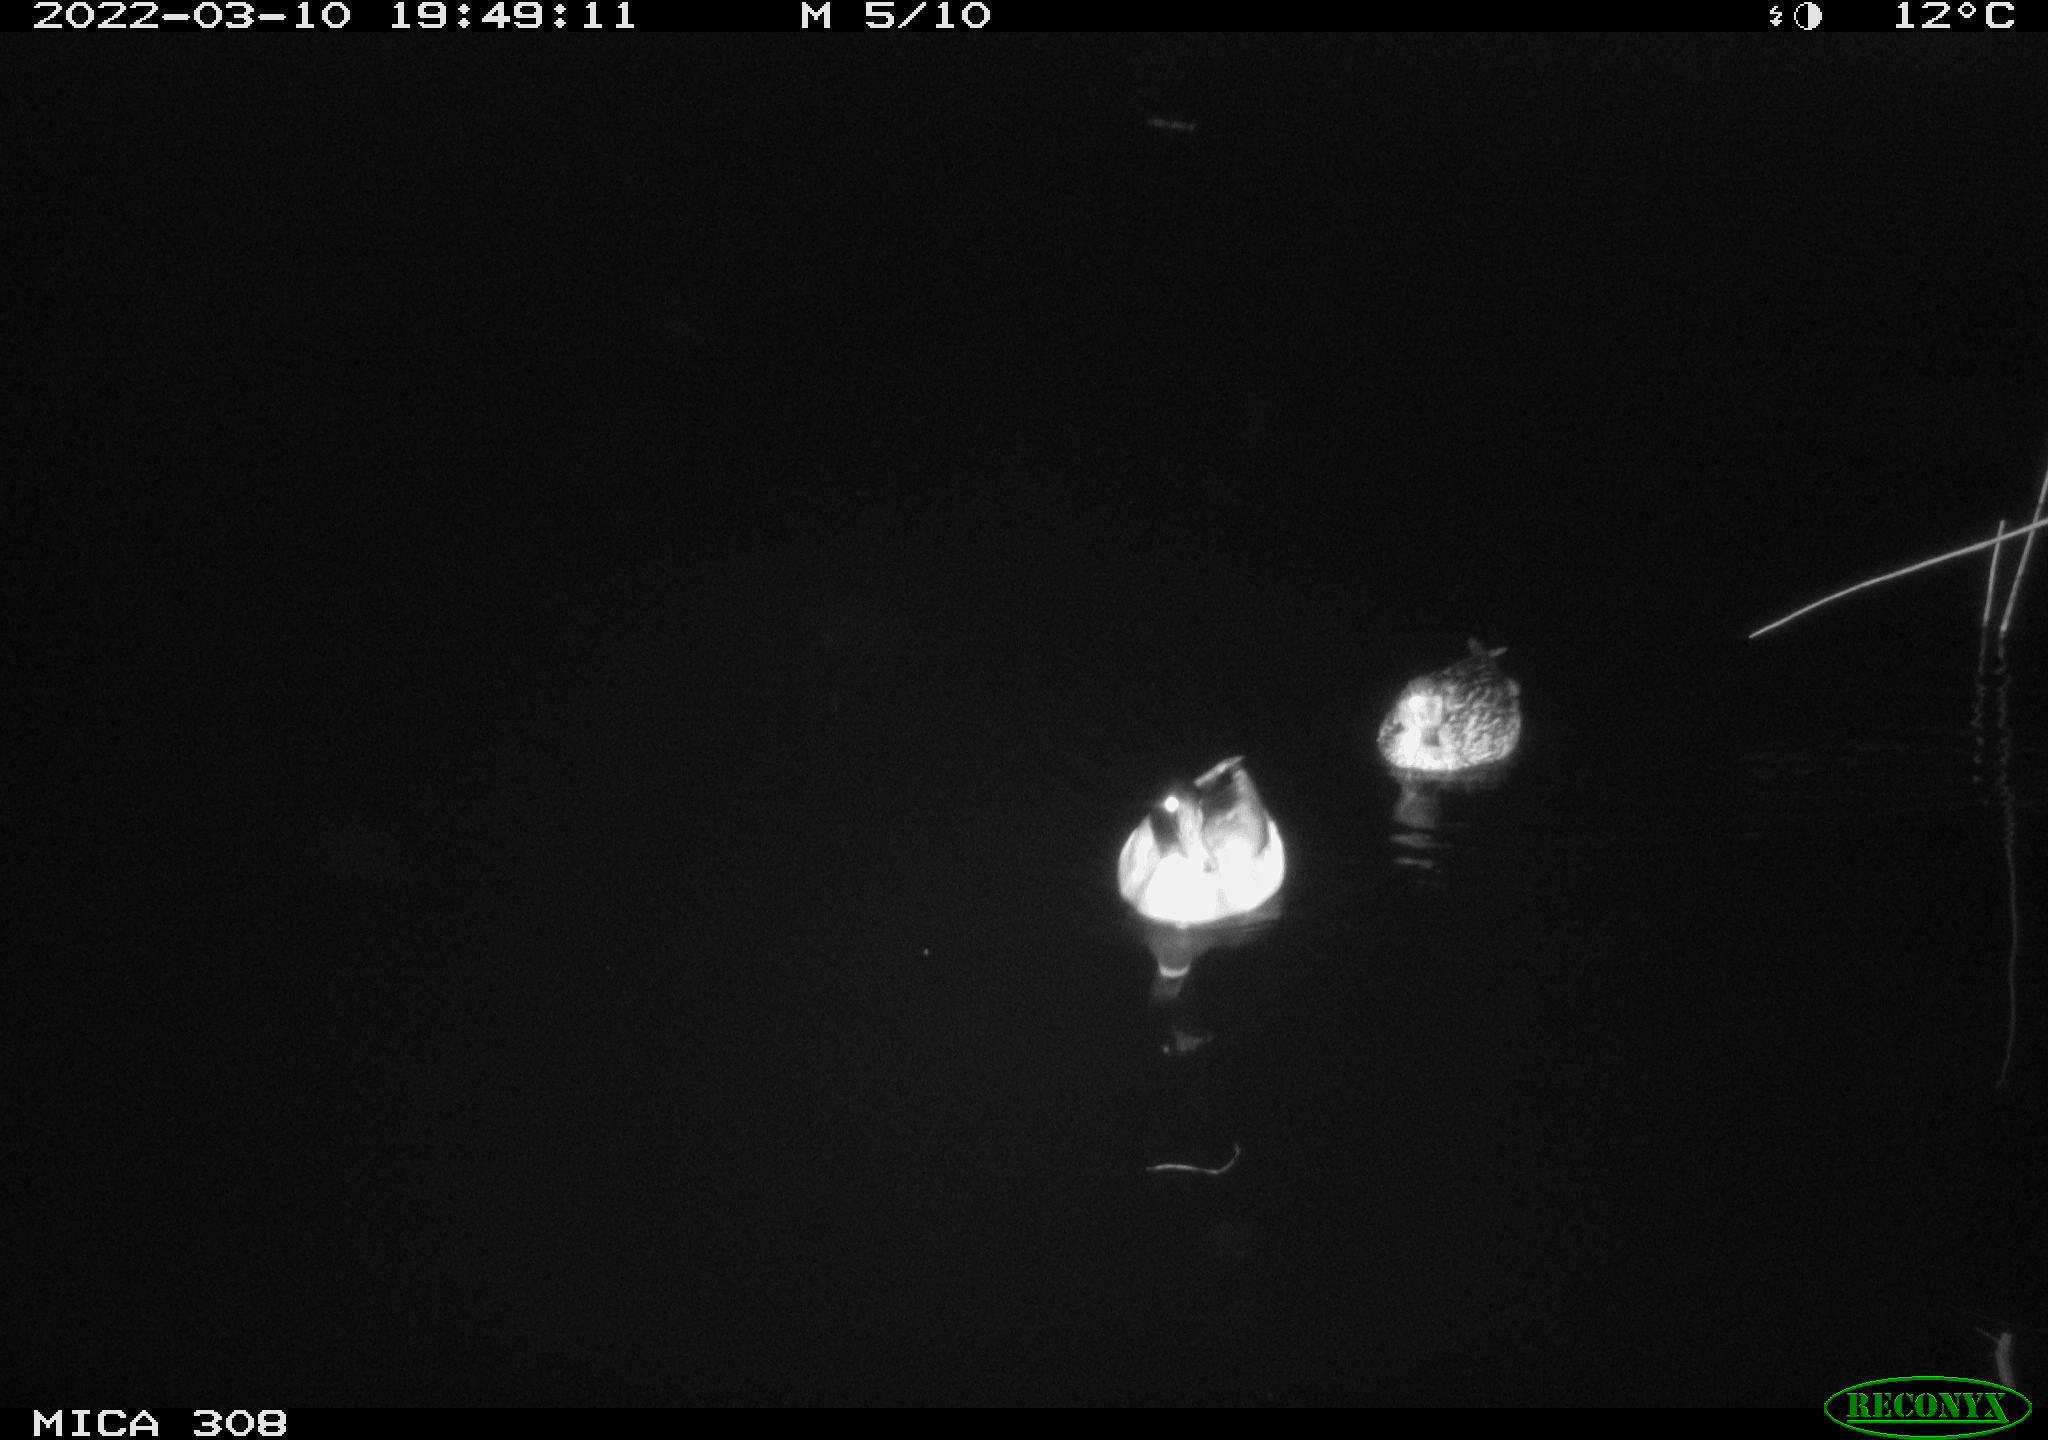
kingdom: Animalia
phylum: Chordata
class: Aves
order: Anseriformes
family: Anatidae
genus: Anas
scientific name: Anas platyrhynchos
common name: Mallard
